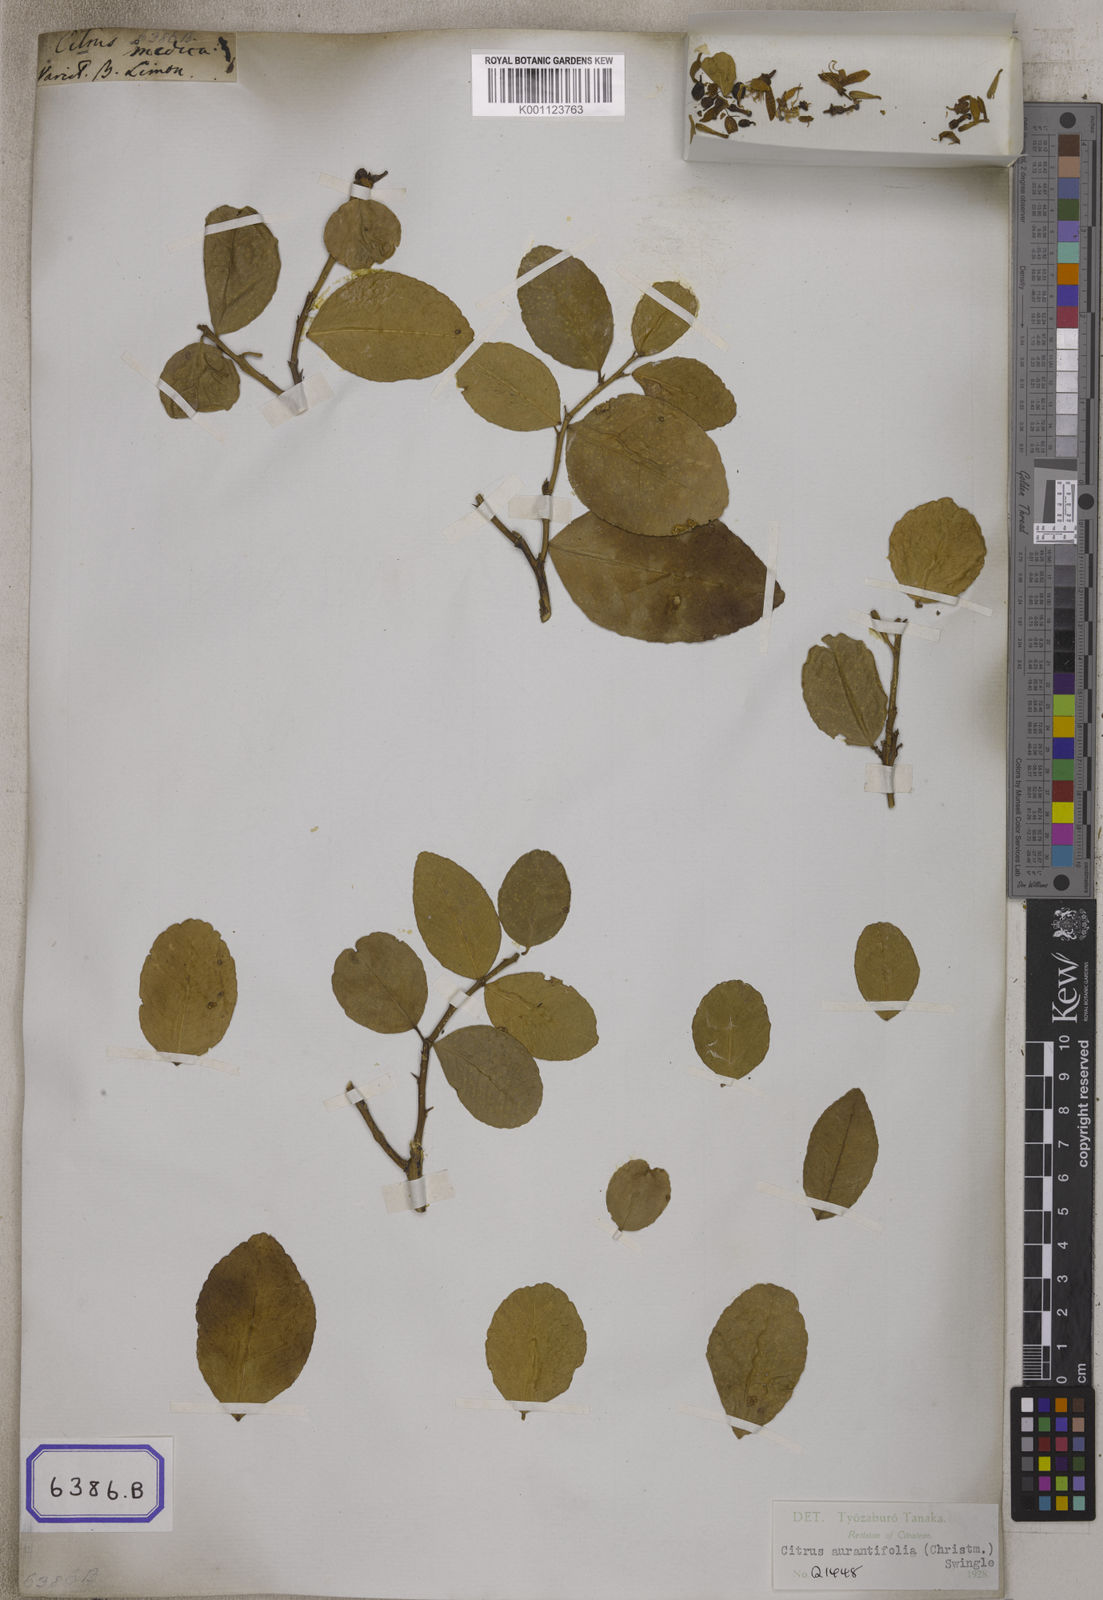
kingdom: Plantae
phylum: Tracheophyta
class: Magnoliopsida
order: Sapindales
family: Rutaceae
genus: Citrus
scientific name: Citrus
